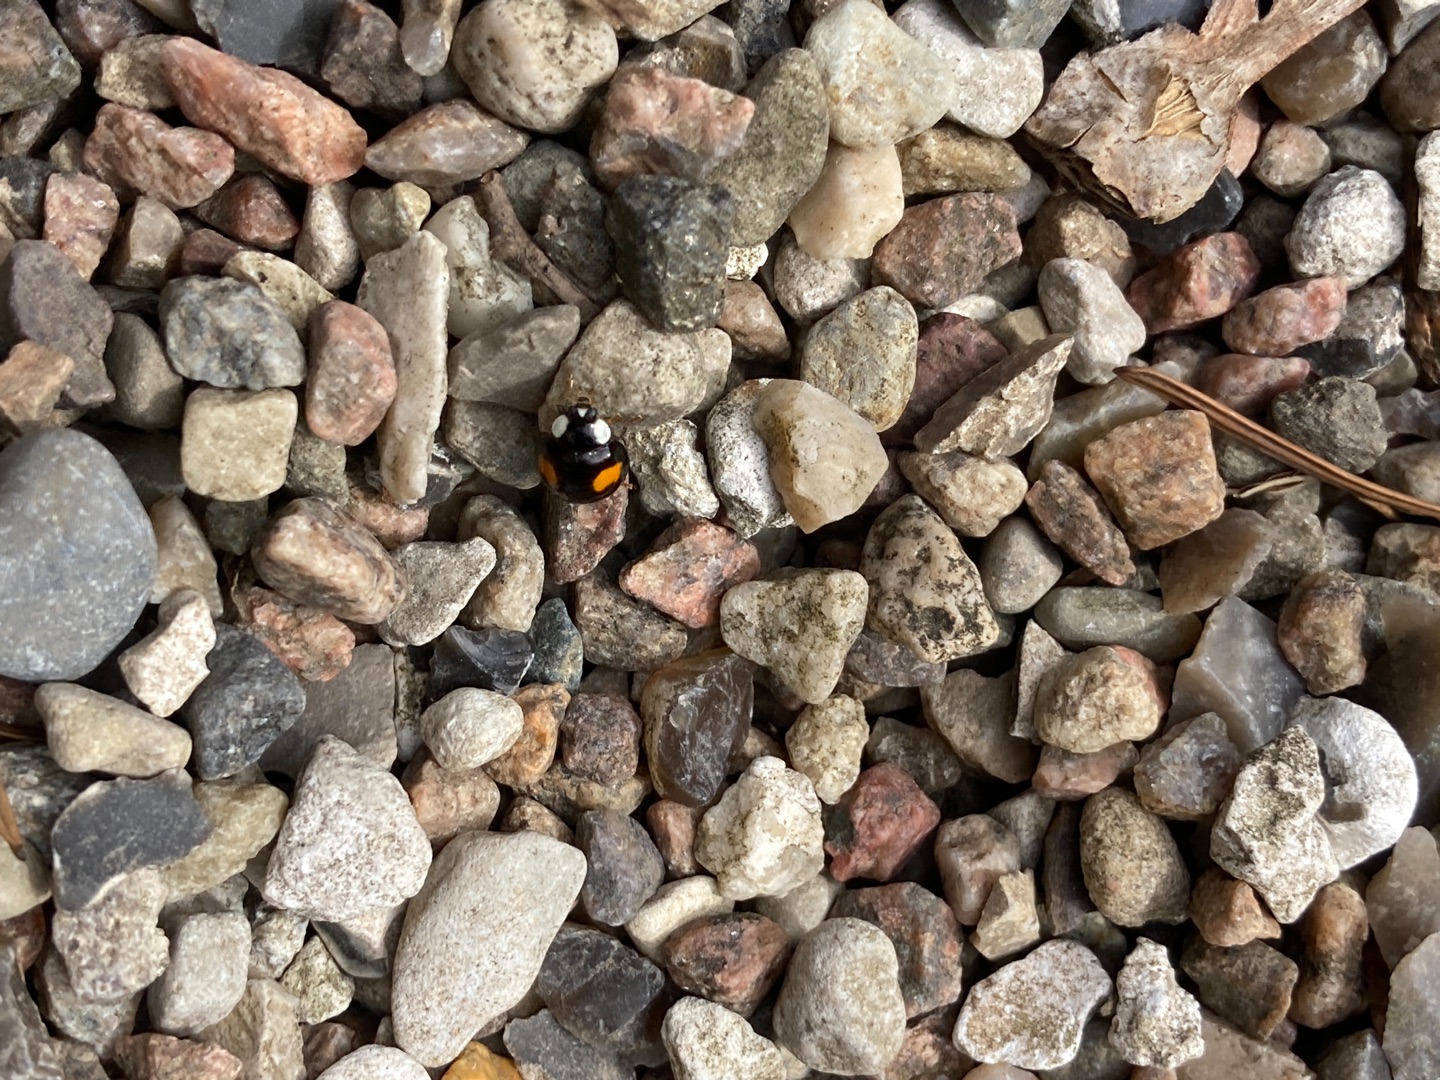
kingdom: Animalia
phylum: Arthropoda
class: Insecta
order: Coleoptera
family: Coccinellidae
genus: Harmonia
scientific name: Harmonia axyridis
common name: Harlekinmariehøne
